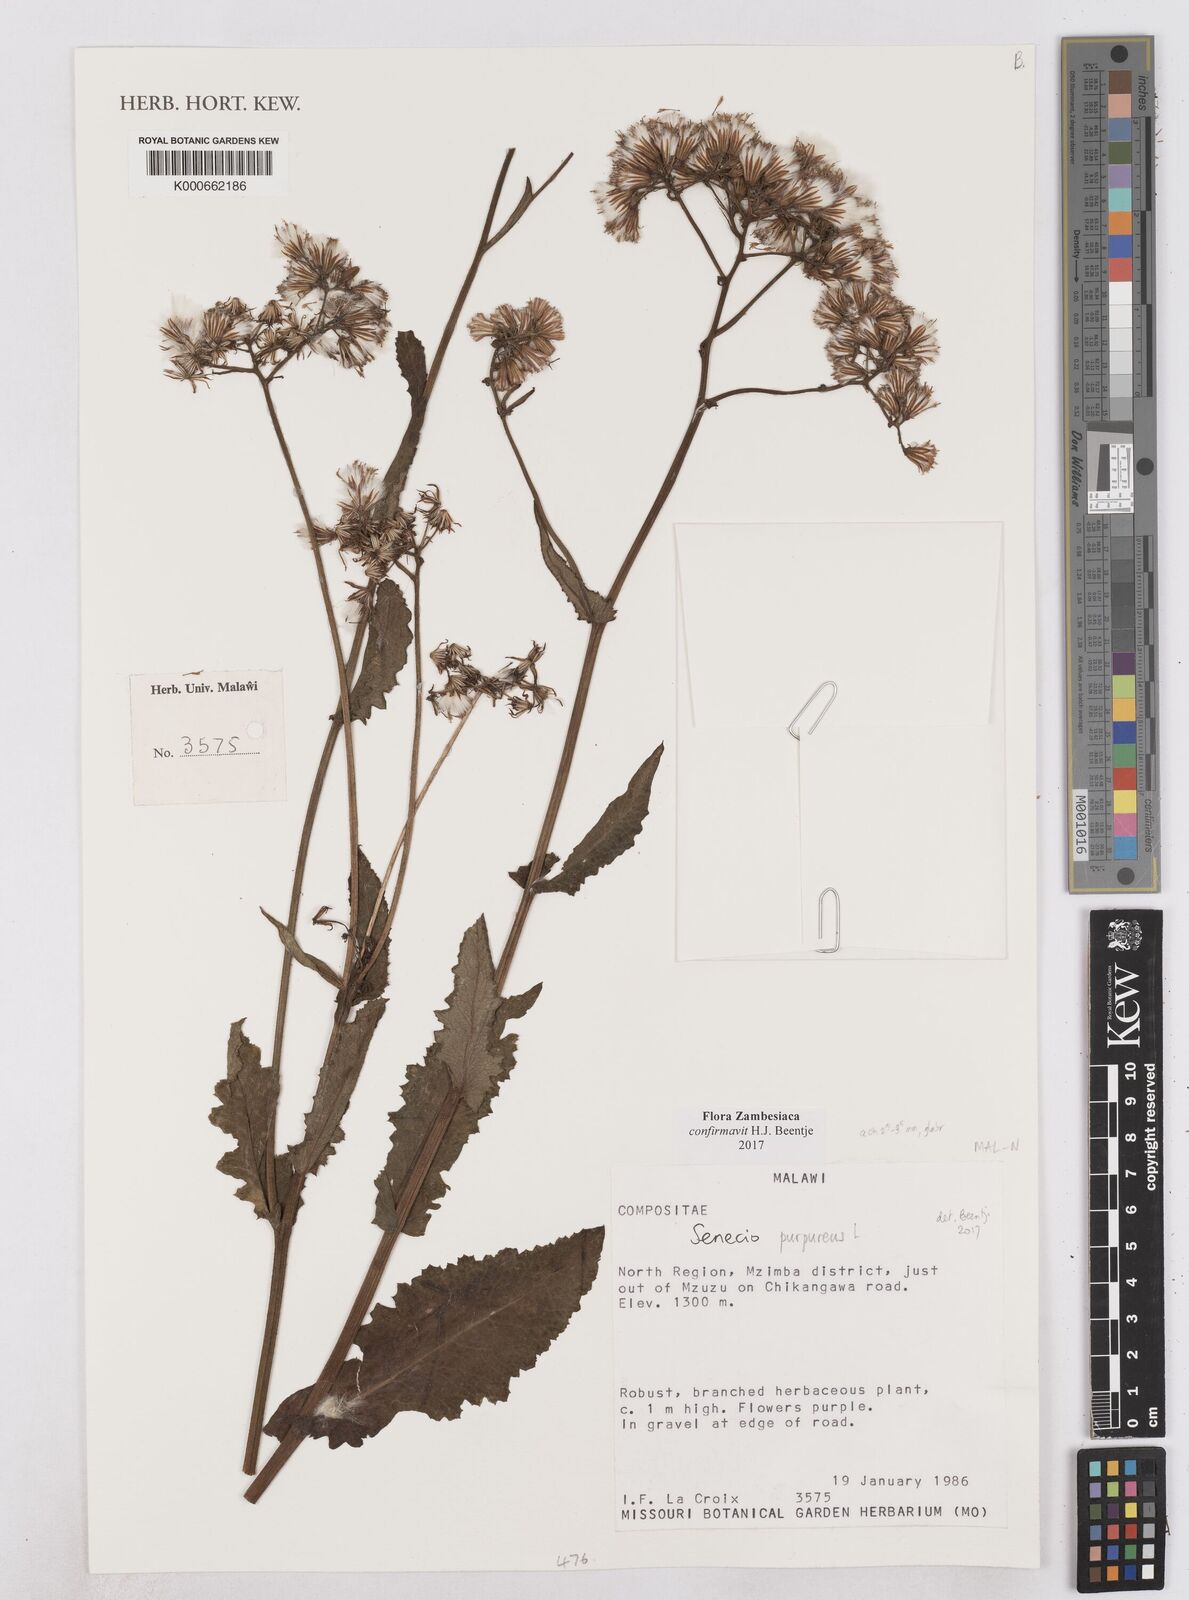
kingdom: Plantae
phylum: Tracheophyta
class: Magnoliopsida
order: Asterales
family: Asteraceae
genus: Senecio
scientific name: Senecio
